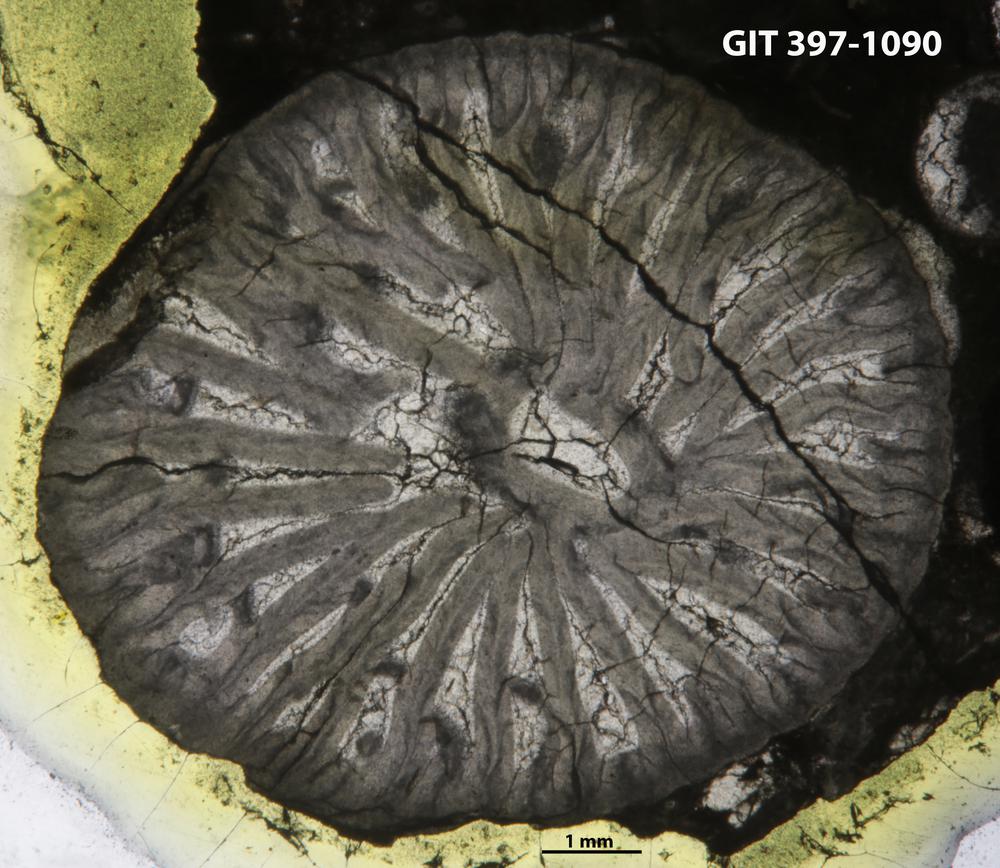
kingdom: Animalia
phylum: Cnidaria
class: Anthozoa
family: Streptelasmatidae
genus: Rhegmaphyllum
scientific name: Rhegmaphyllum
